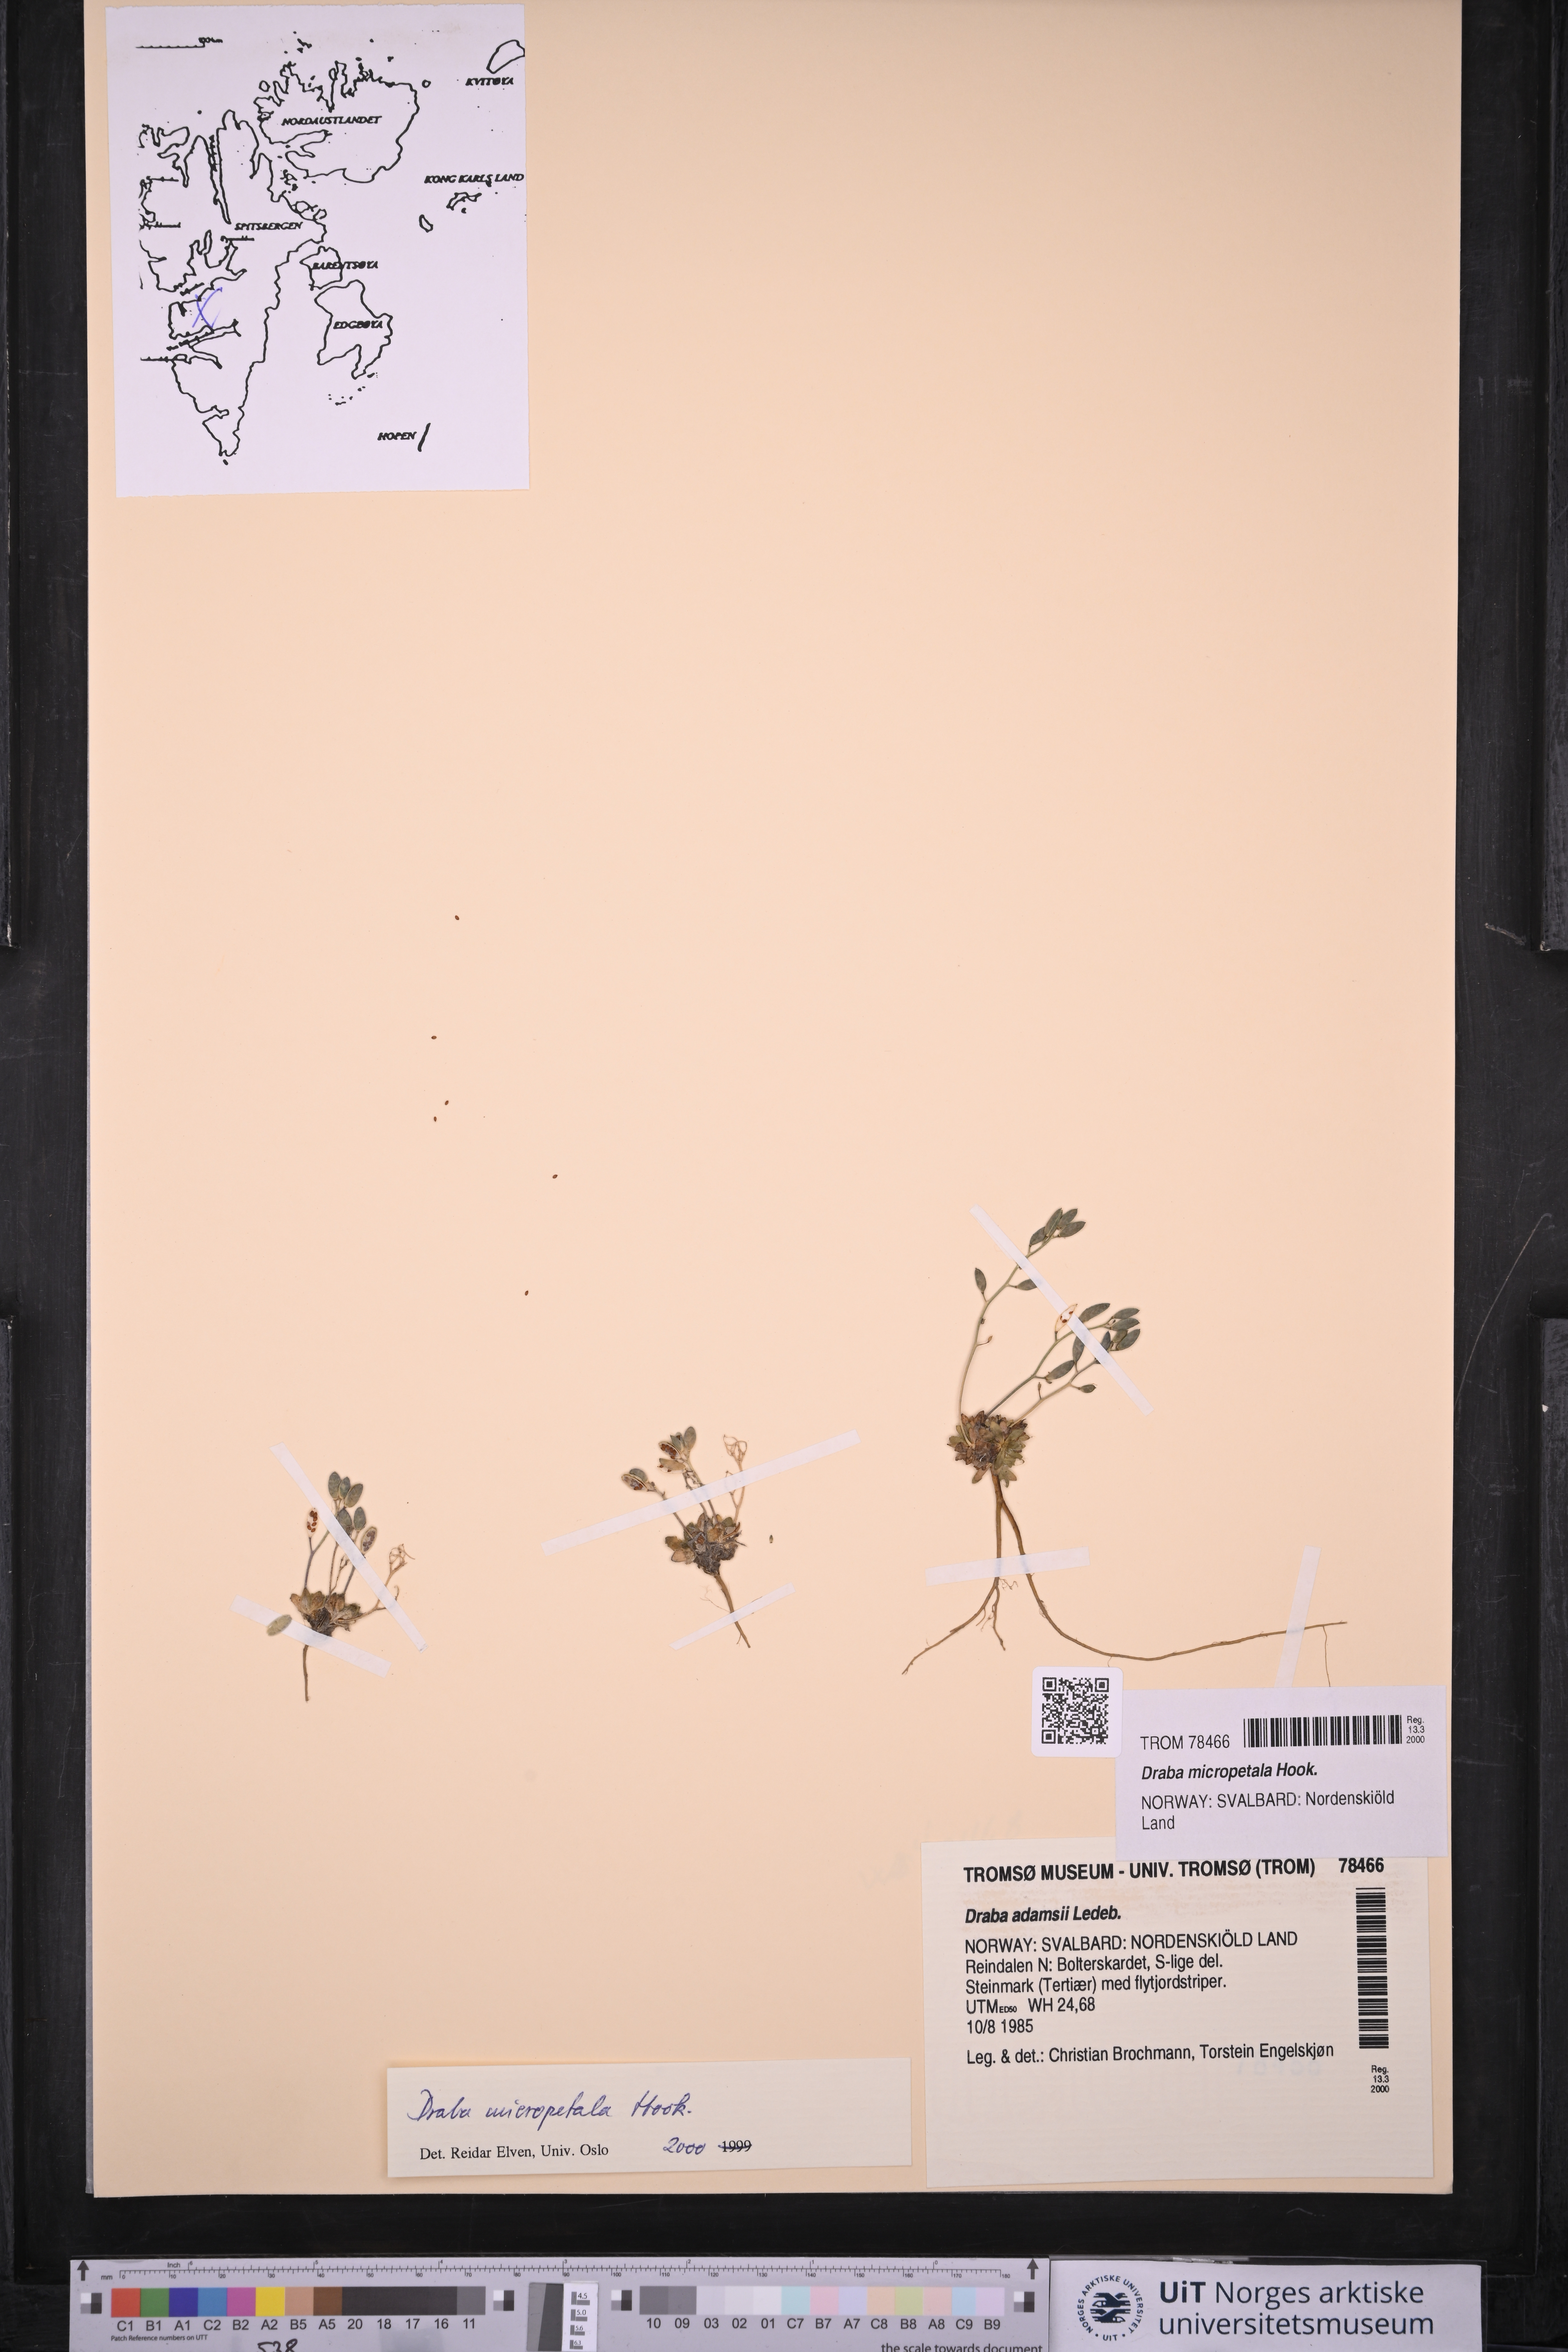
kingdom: Plantae
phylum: Tracheophyta
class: Magnoliopsida
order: Brassicales
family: Brassicaceae
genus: Draba
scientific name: Draba micropetala
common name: Small-flowered draba
